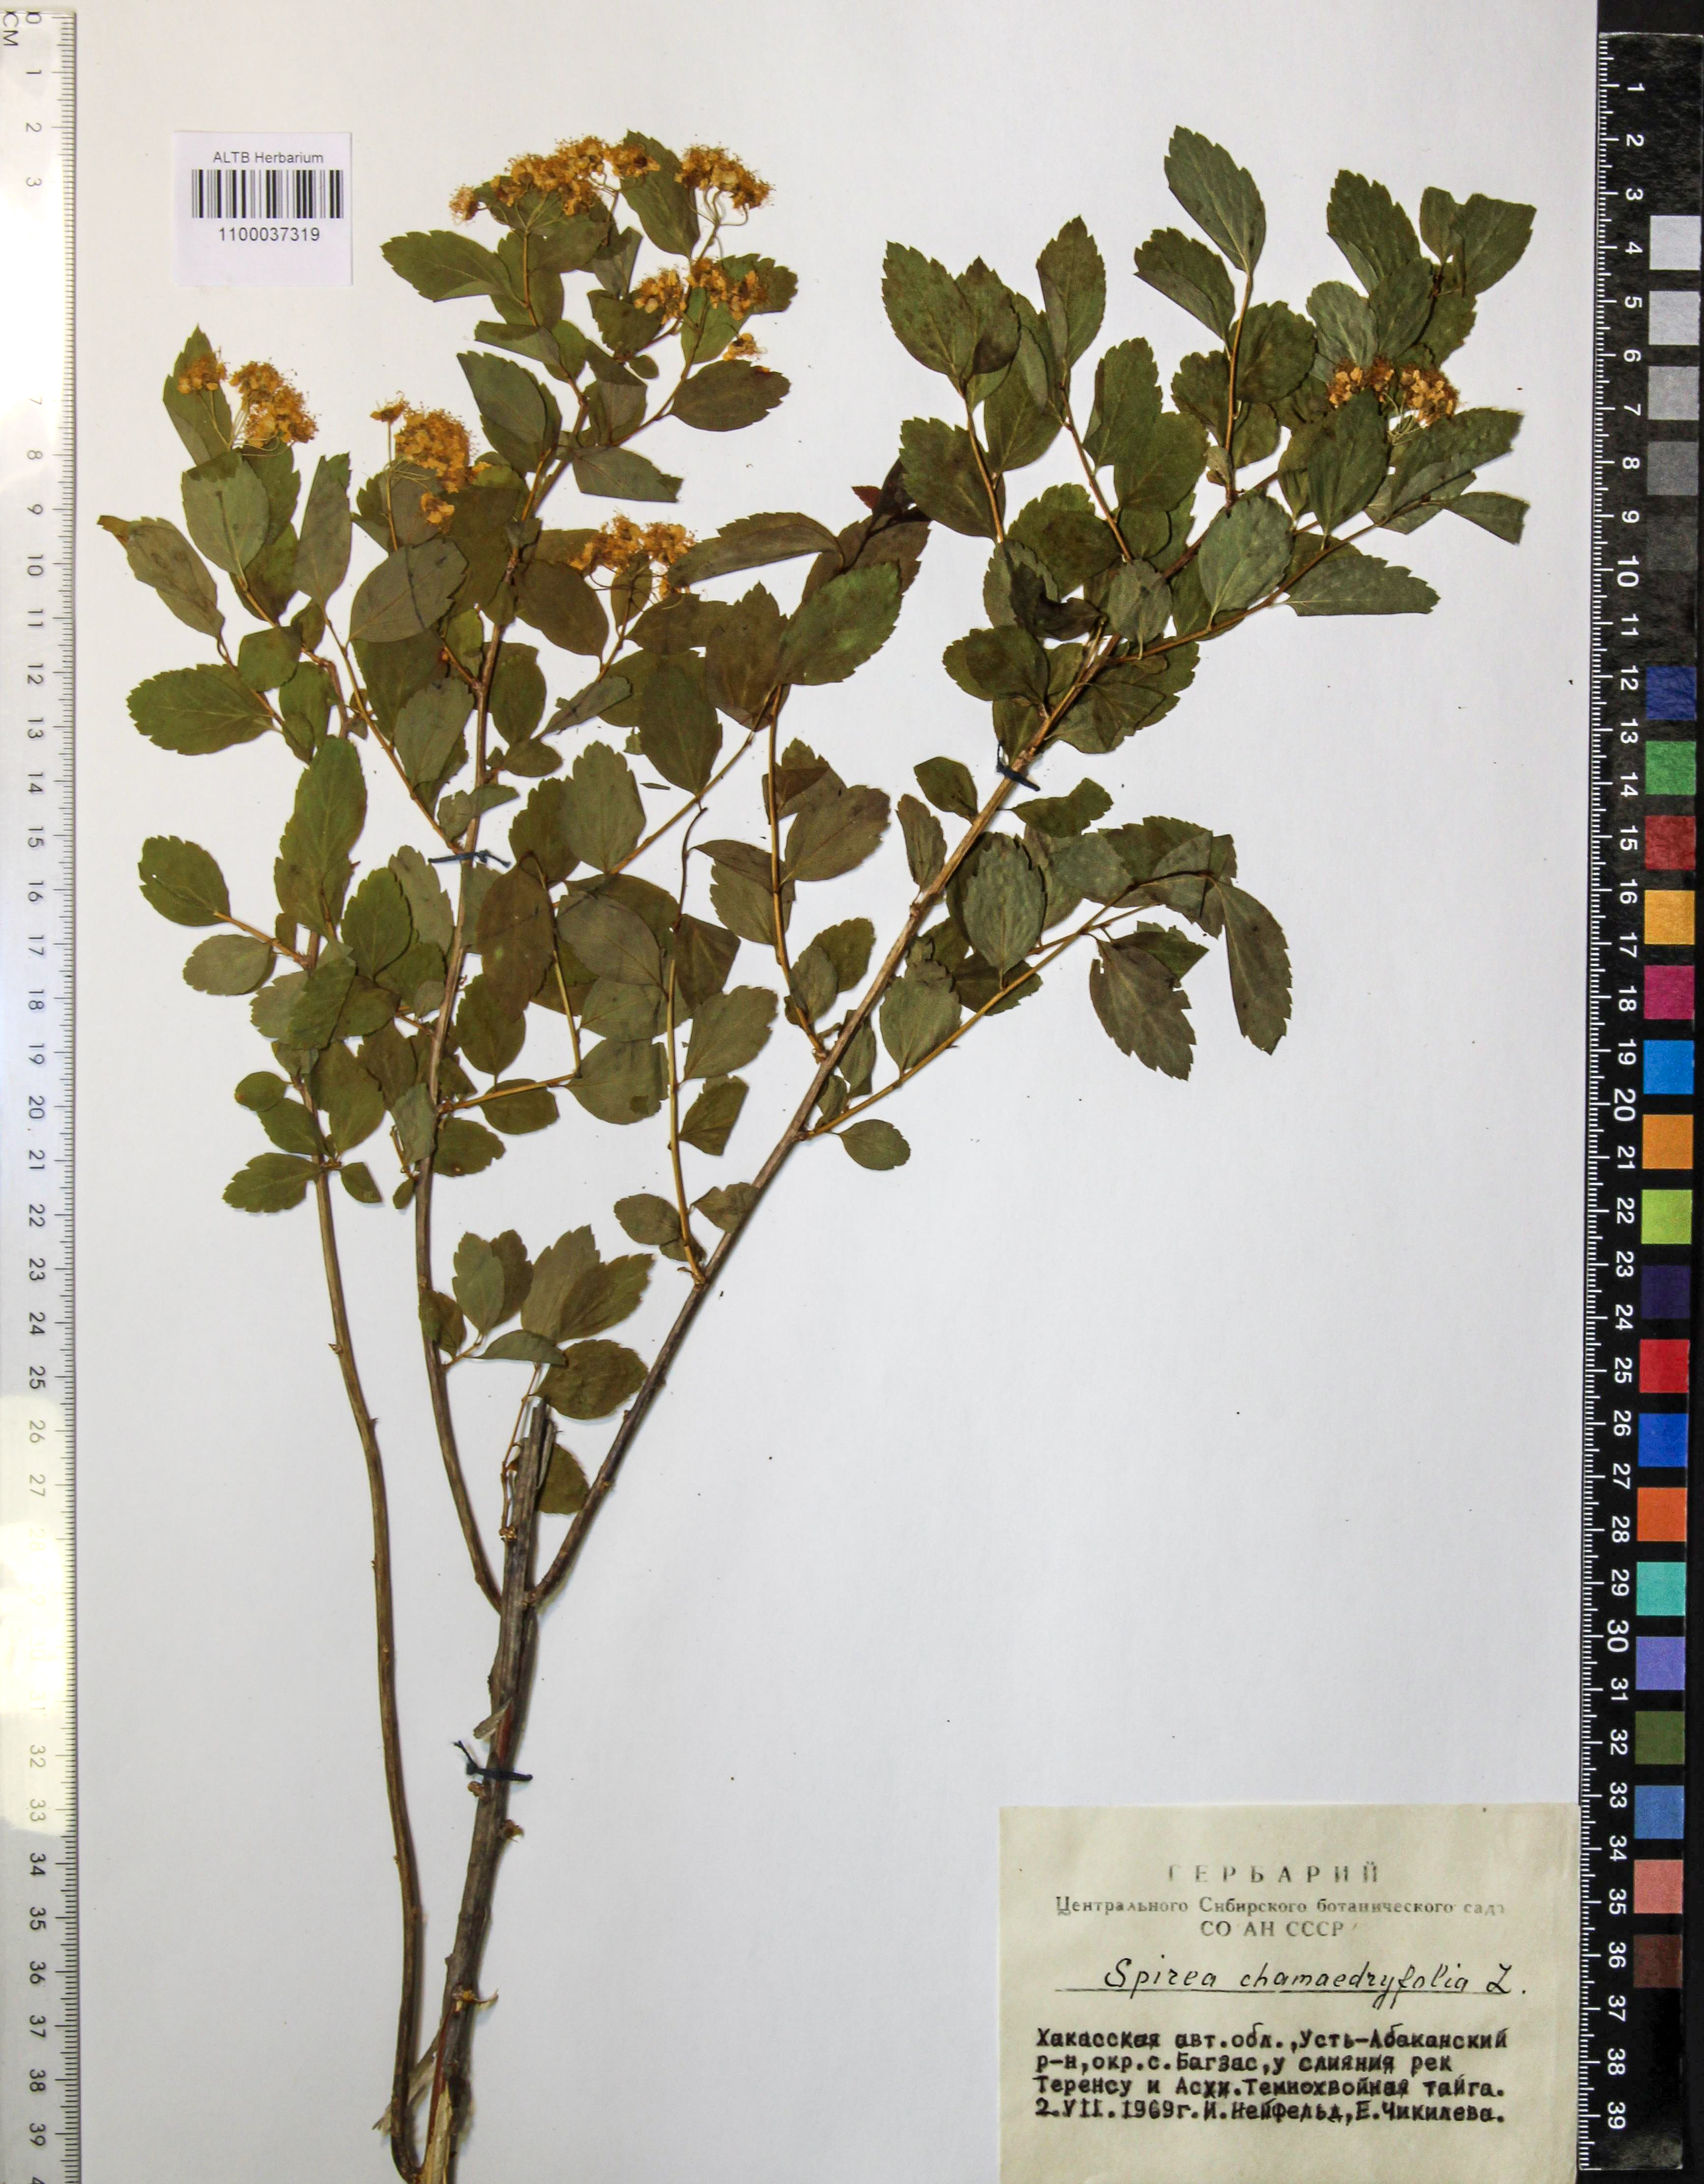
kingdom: Plantae
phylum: Tracheophyta
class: Magnoliopsida
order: Rosales
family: Rosaceae
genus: Spiraea
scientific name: Spiraea chamaedryfolia
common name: Elm-leaved spiraea
